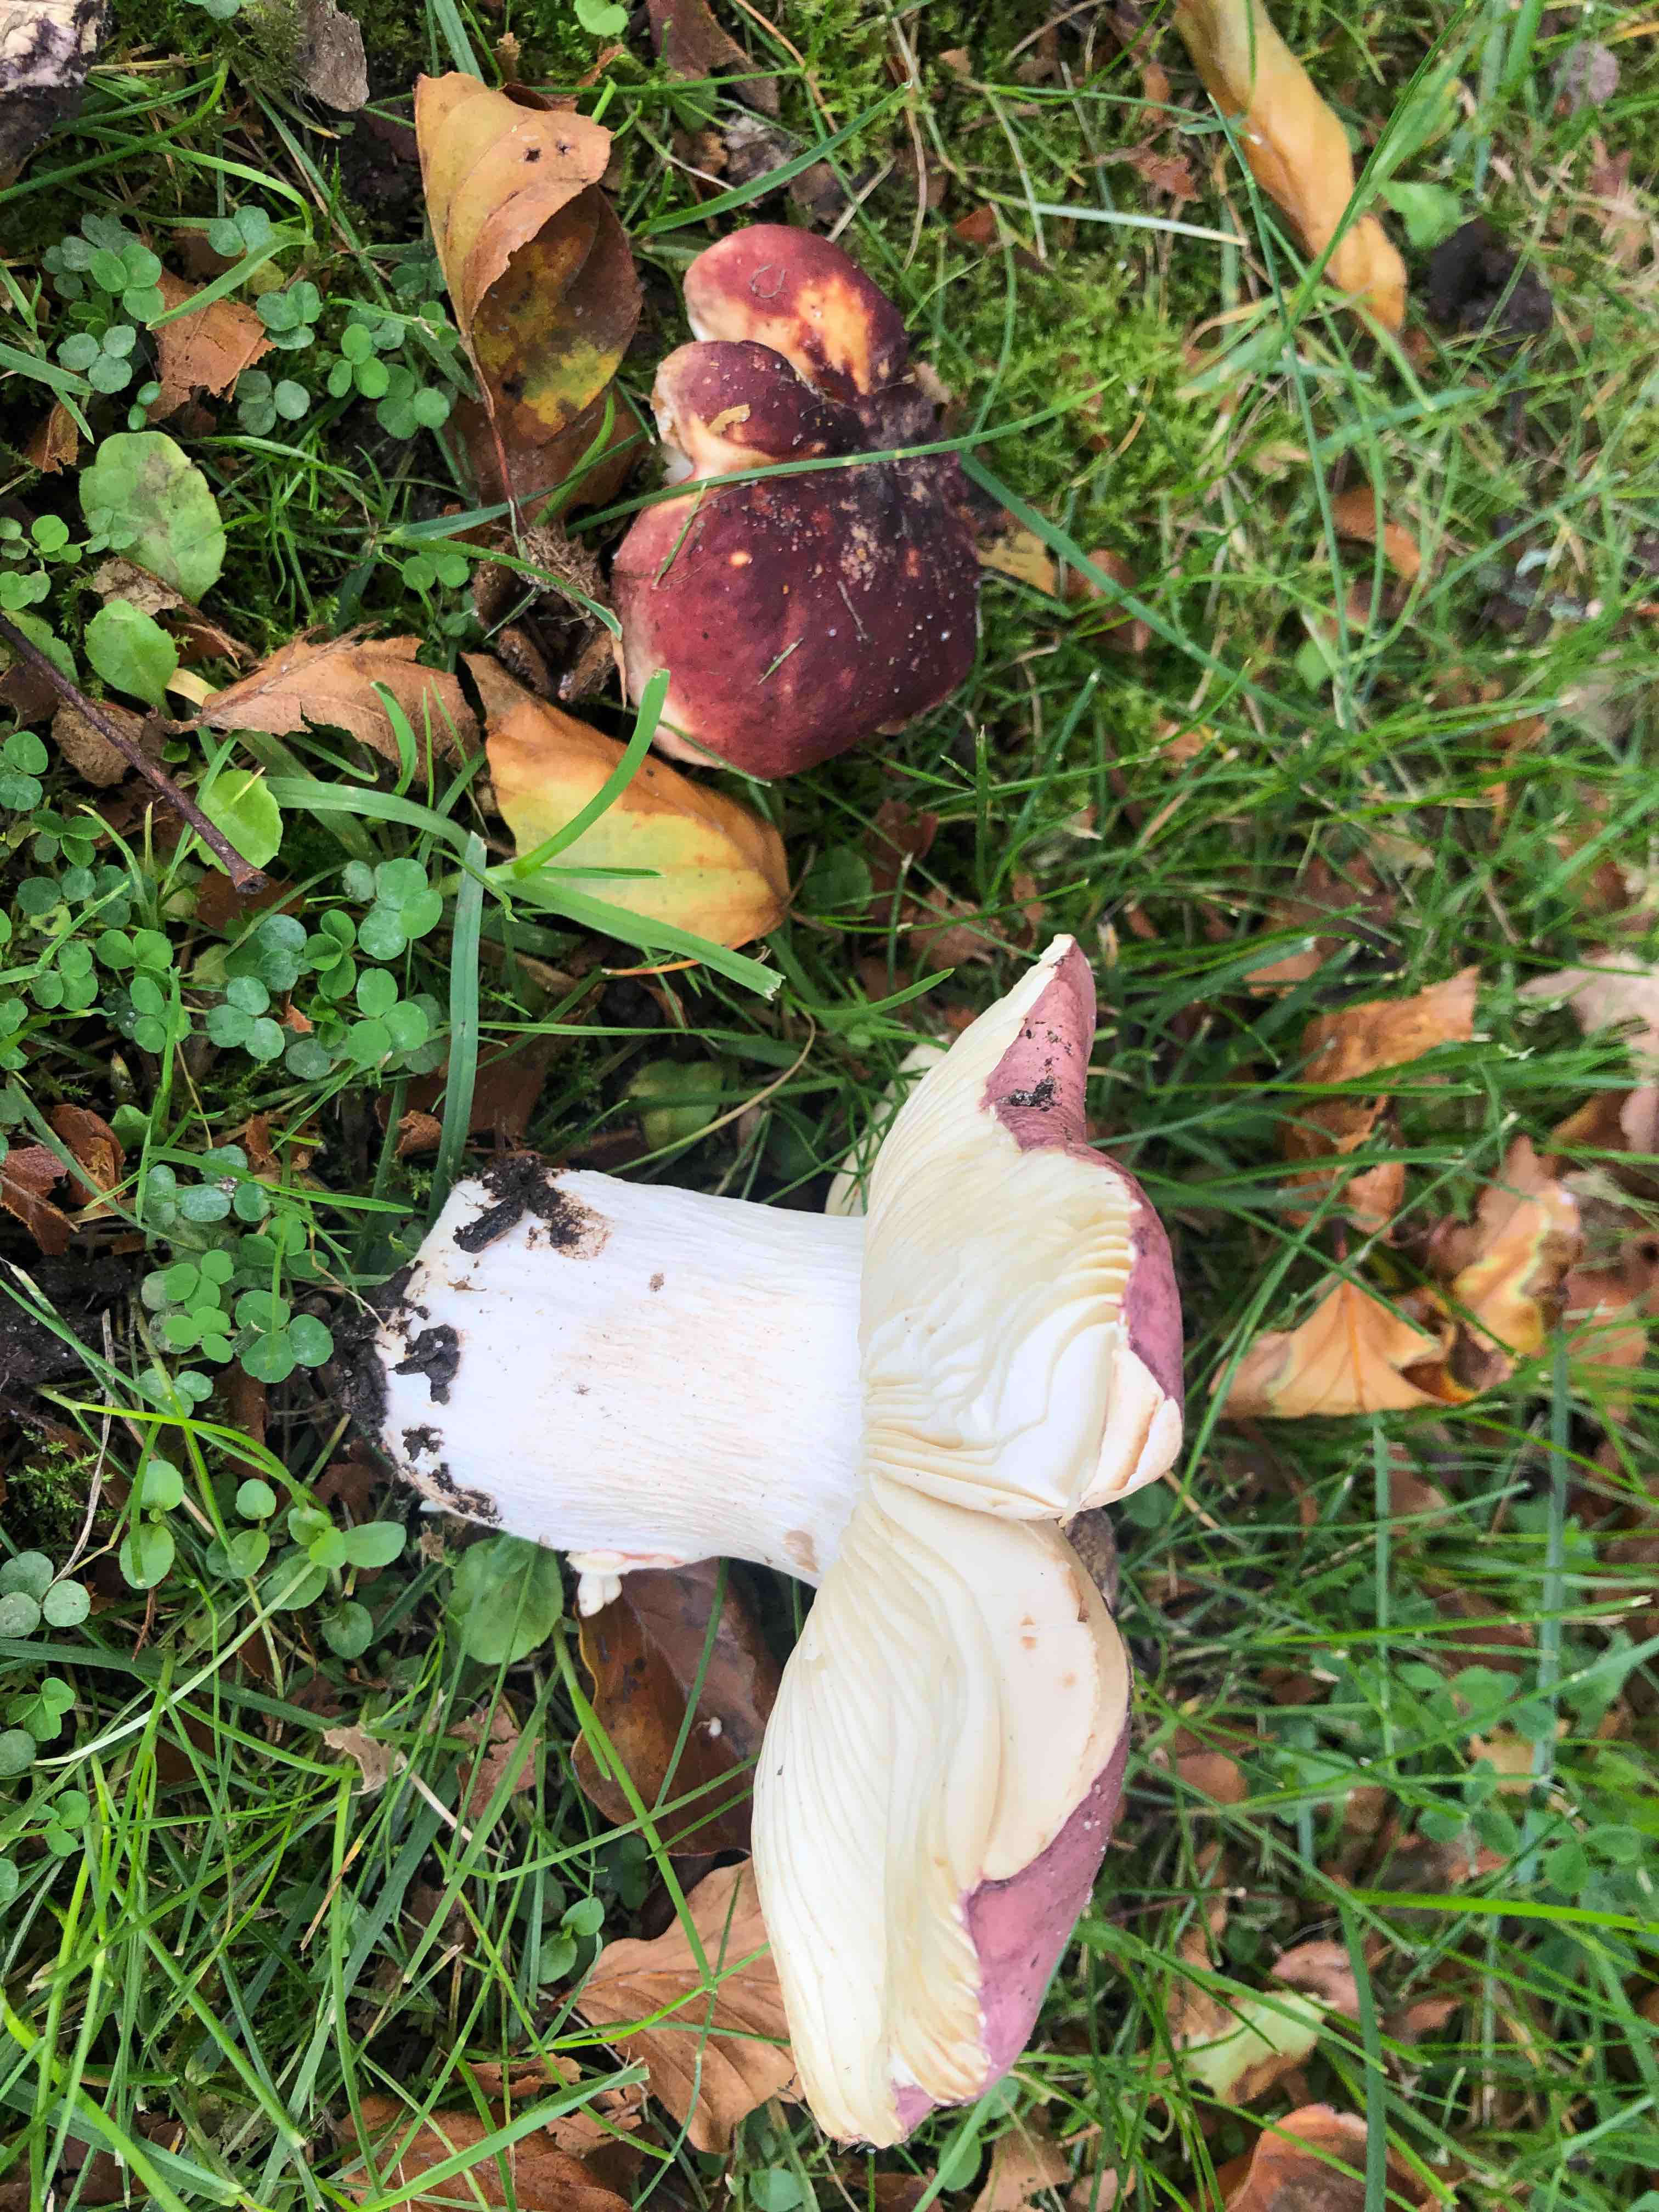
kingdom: Fungi
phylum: Basidiomycota
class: Agaricomycetes
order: Russulales
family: Russulaceae
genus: Russula
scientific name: Russula
